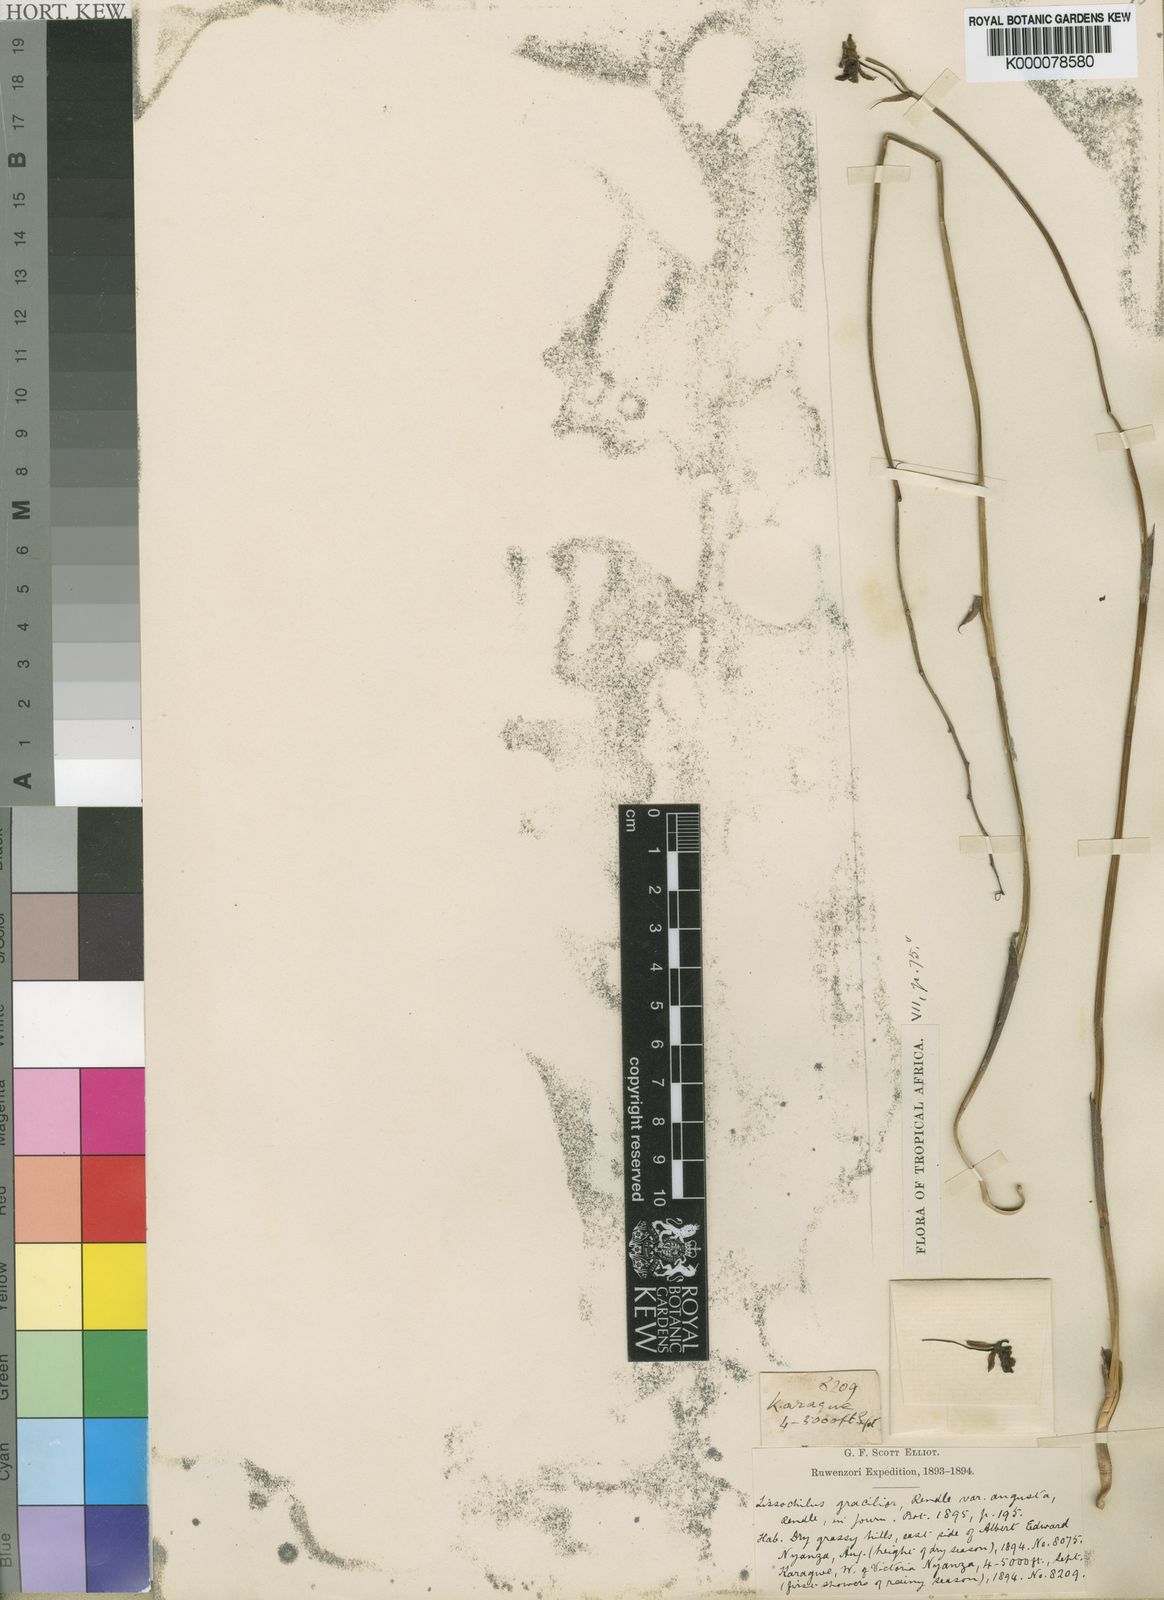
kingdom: Plantae
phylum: Tracheophyta
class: Liliopsida
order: Asparagales
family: Orchidaceae
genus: Eulophia
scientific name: Eulophia
